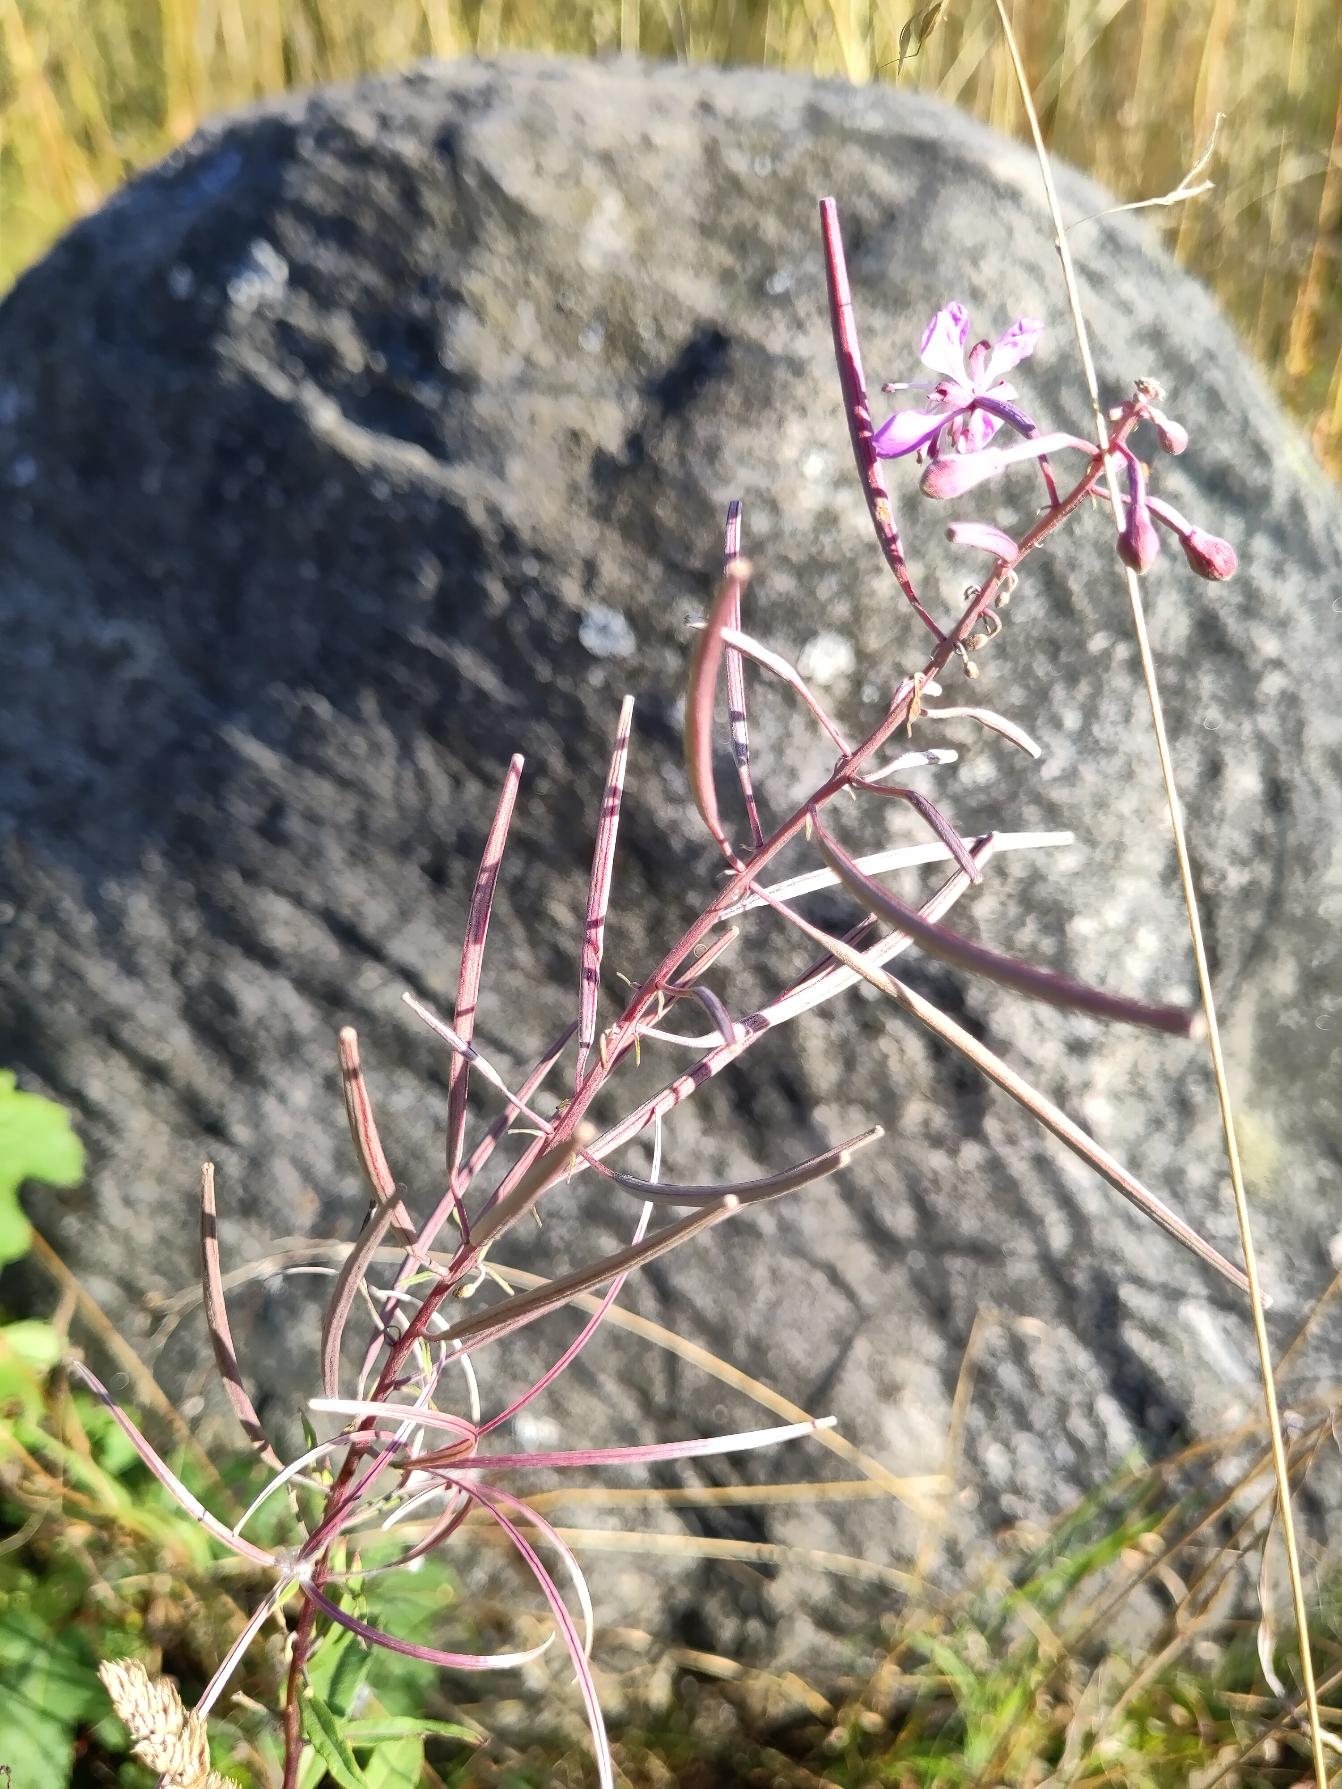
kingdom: Plantae
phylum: Tracheophyta
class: Magnoliopsida
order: Myrtales
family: Onagraceae
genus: Chamaenerion
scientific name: Chamaenerion angustifolium
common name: Gederams
